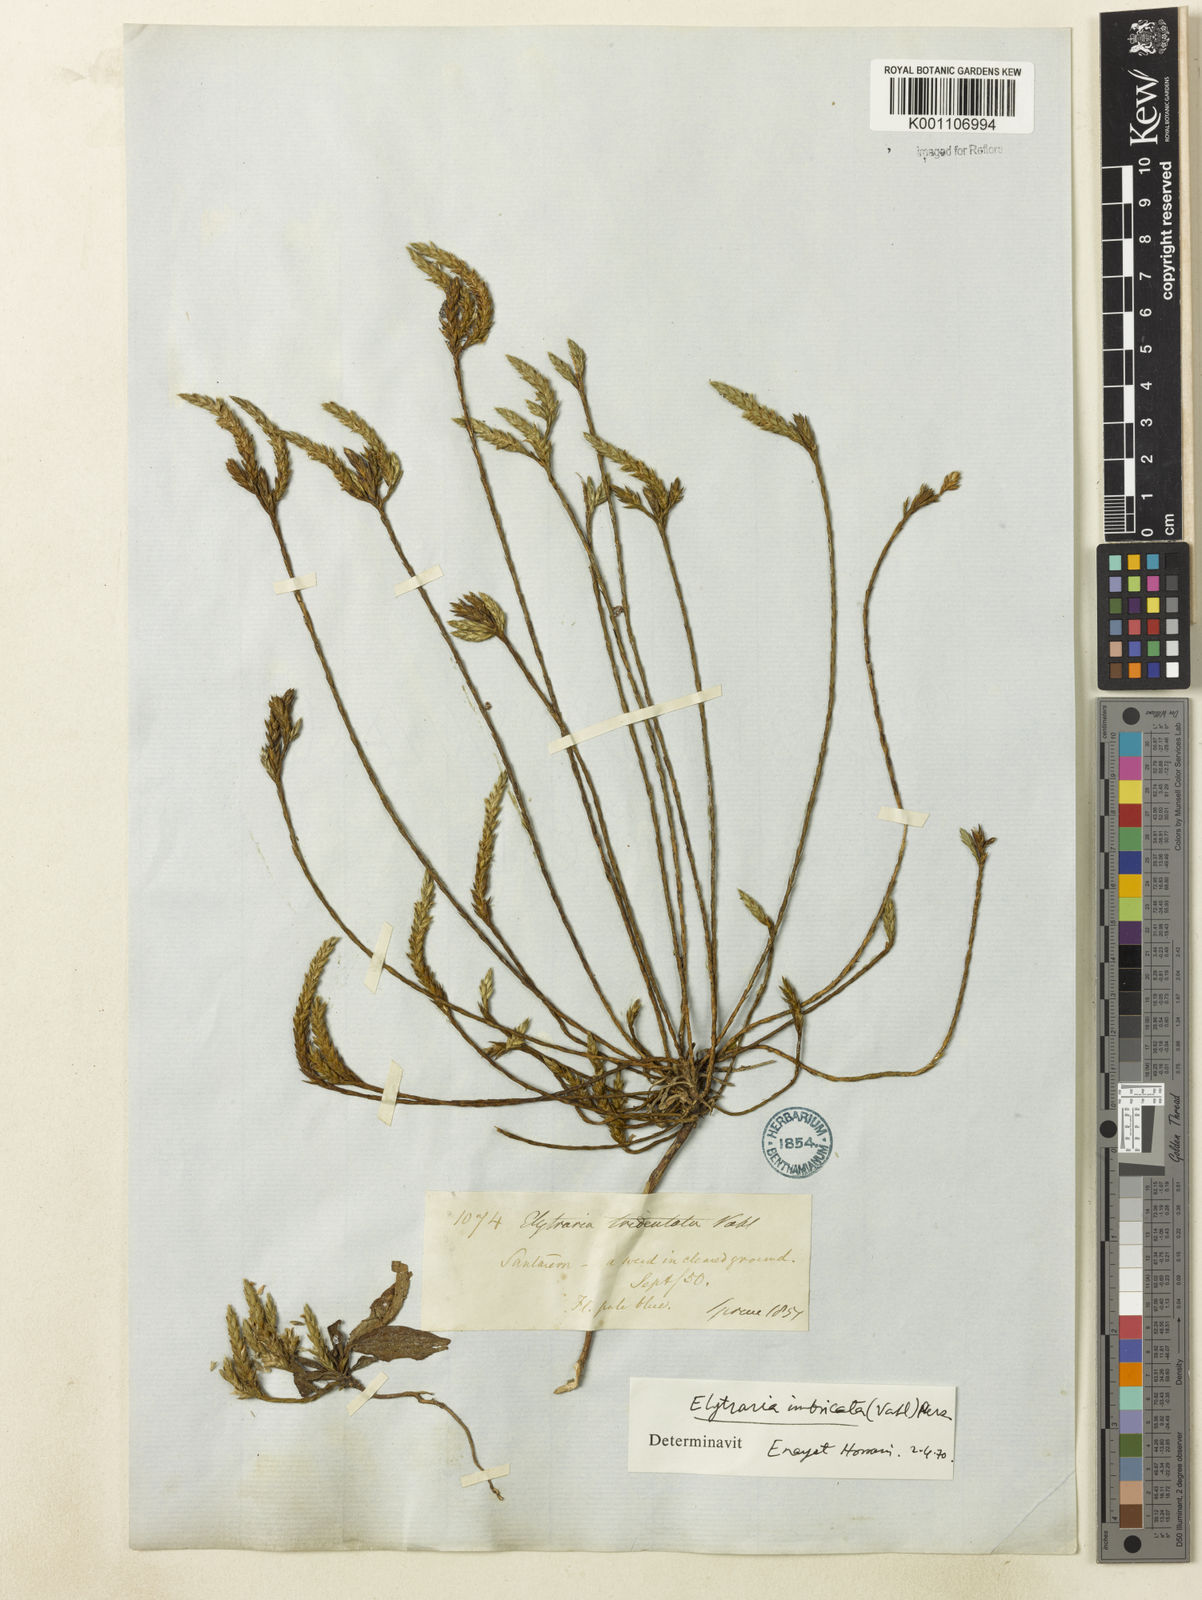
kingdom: Plantae
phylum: Tracheophyta
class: Magnoliopsida
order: Lamiales
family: Acanthaceae
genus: Elytraria
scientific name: Elytraria imbricata
